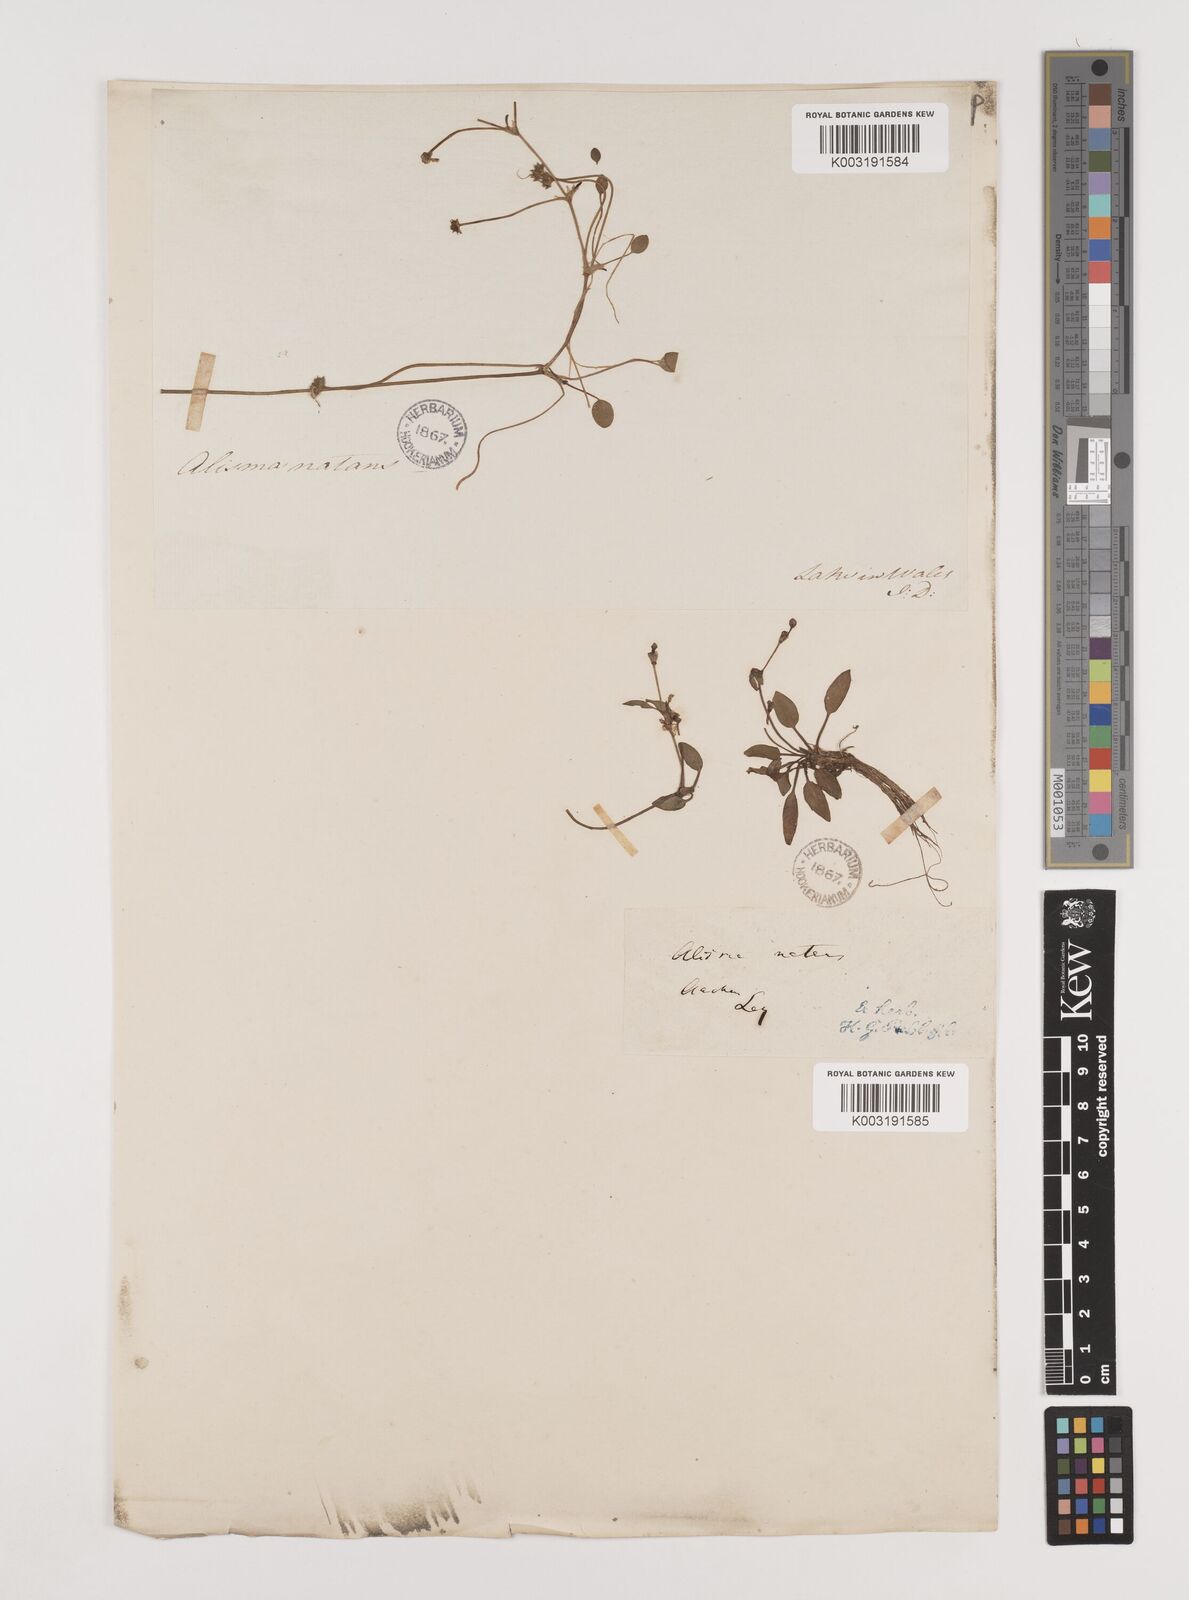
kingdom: Plantae
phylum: Tracheophyta
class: Liliopsida
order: Alismatales
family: Alismataceae
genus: Luronium
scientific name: Luronium natans
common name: Floating water-plantain
